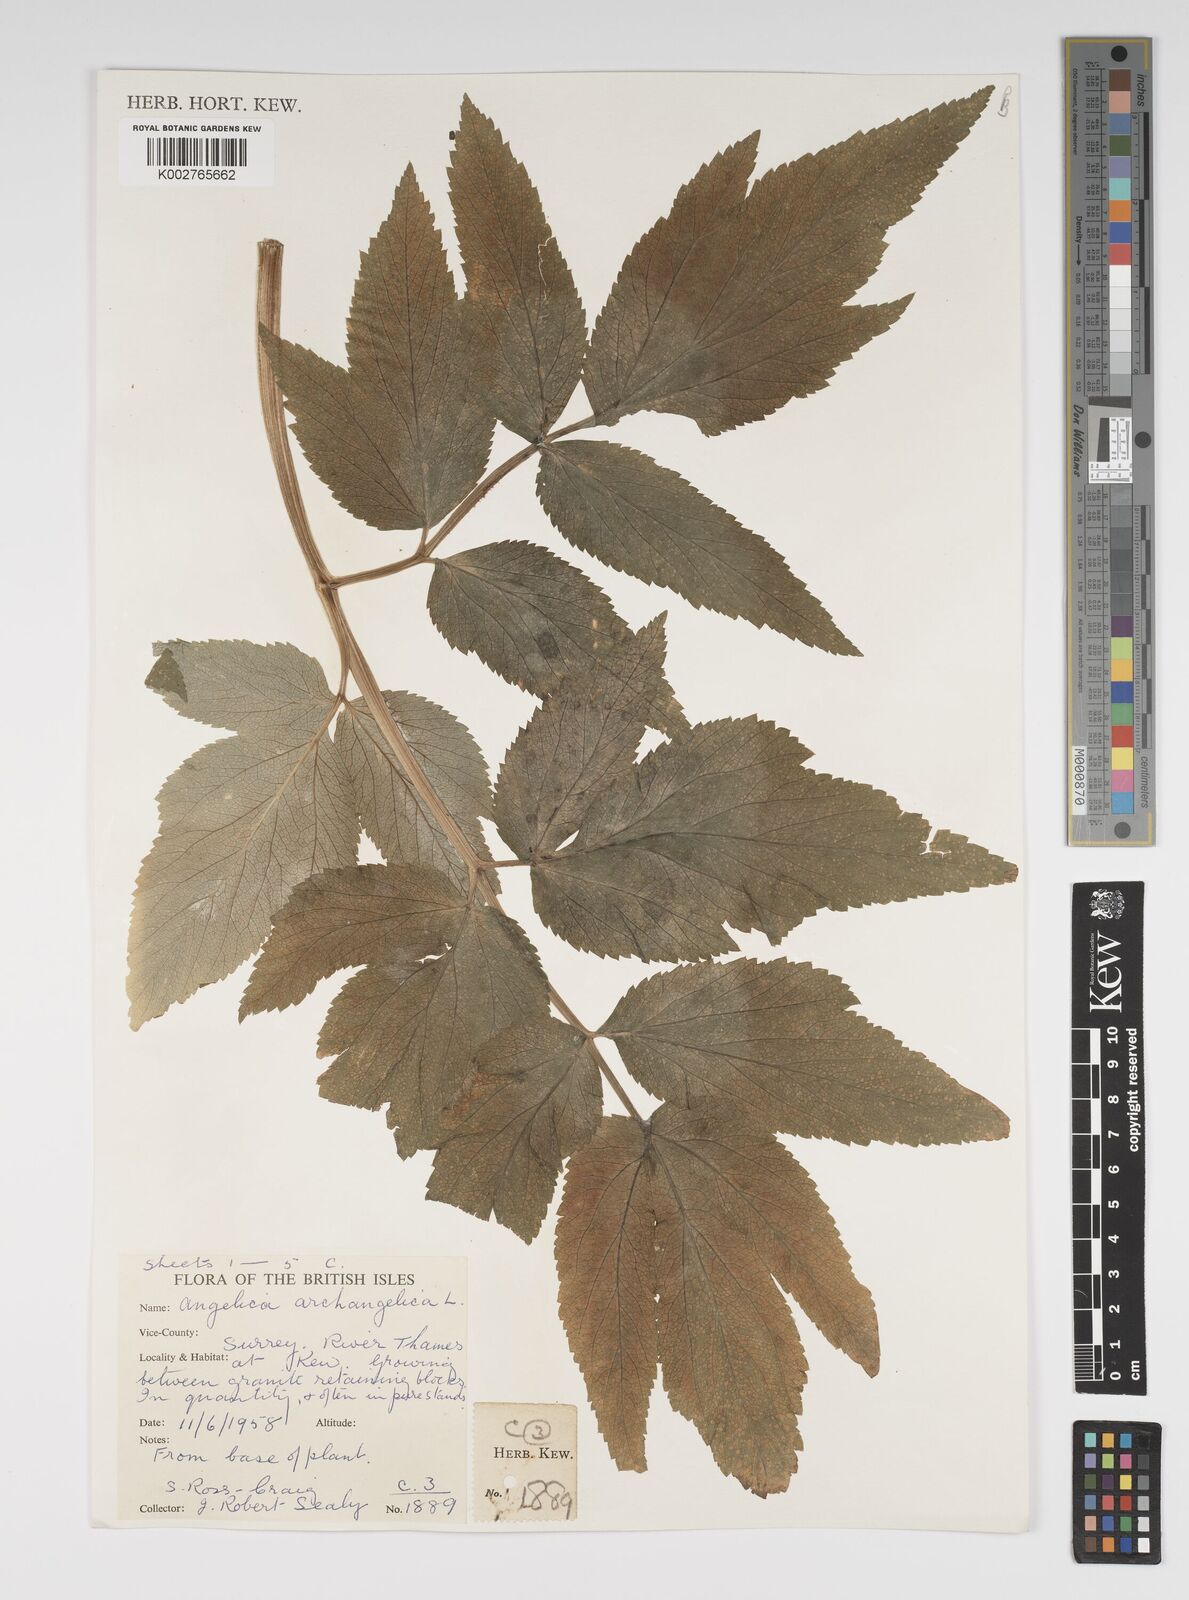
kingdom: Plantae
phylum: Tracheophyta
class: Magnoliopsida
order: Apiales
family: Apiaceae
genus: Angelica
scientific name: Angelica archangelica
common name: Garden angelica
